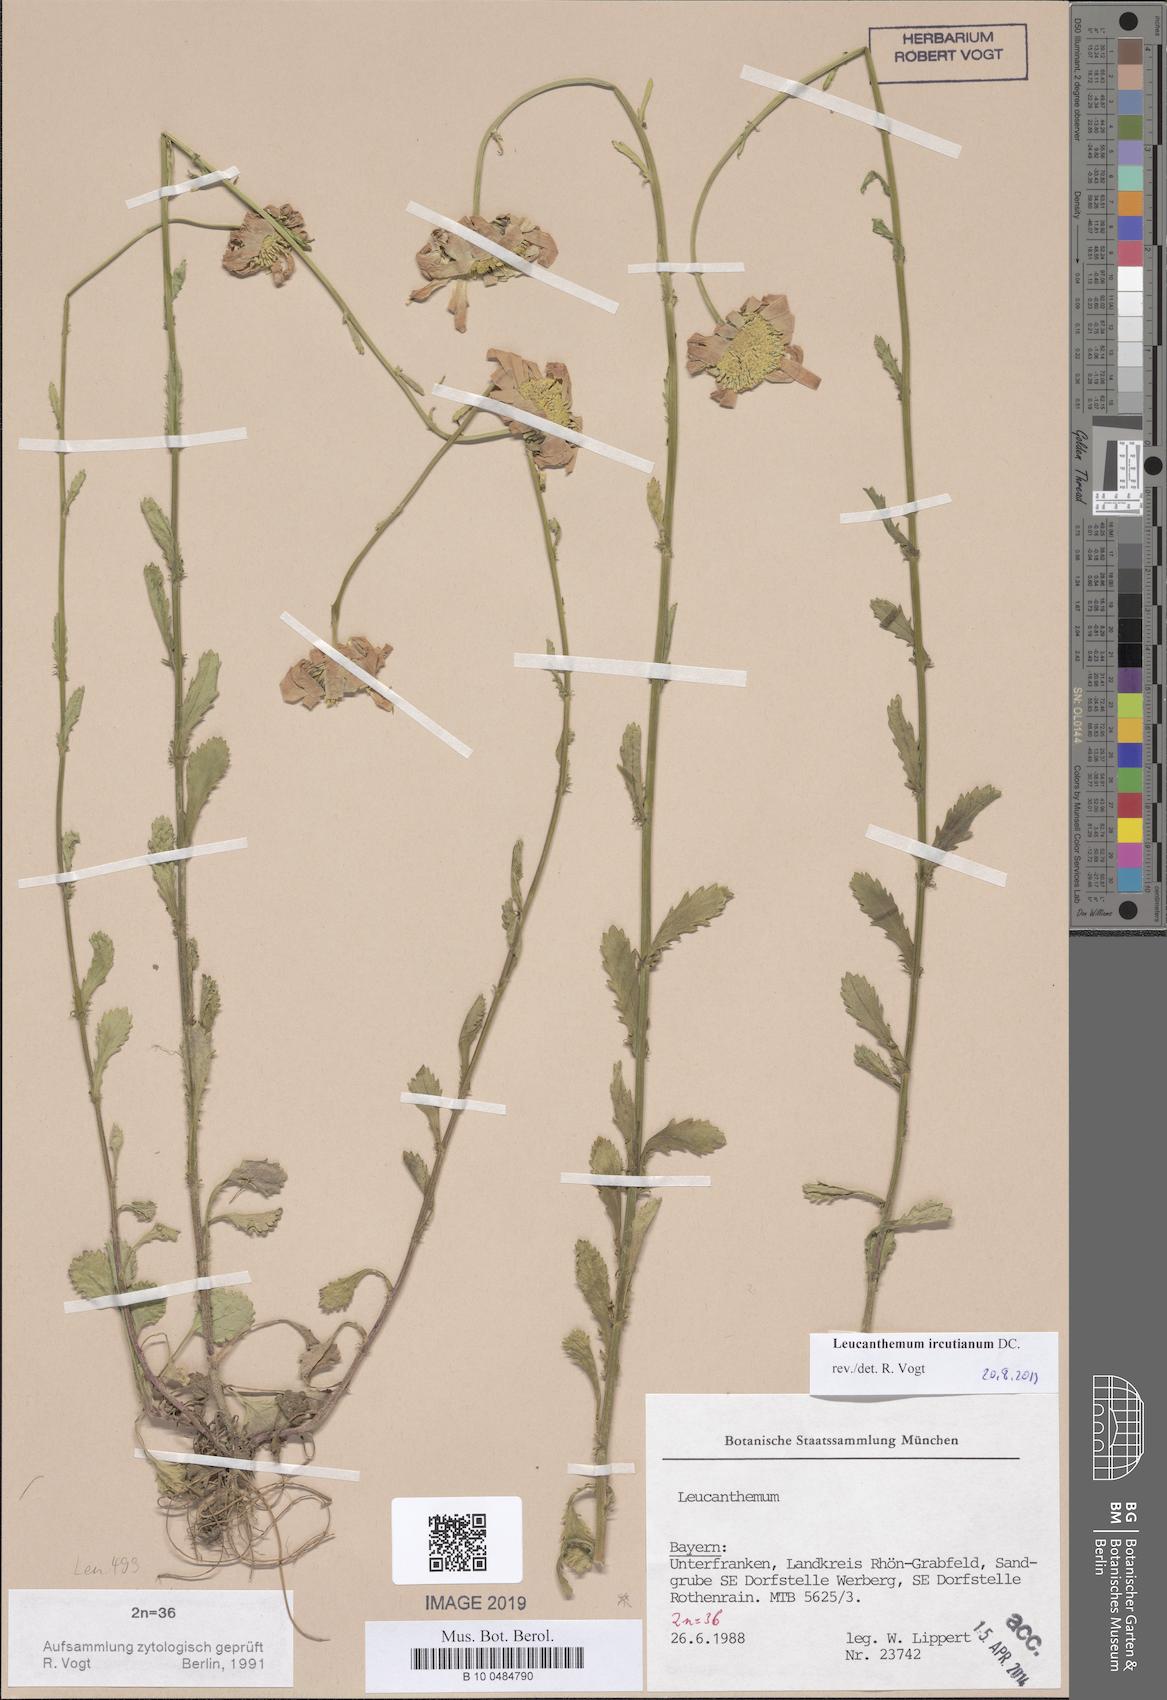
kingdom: Plantae
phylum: Tracheophyta
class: Magnoliopsida
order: Asterales
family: Asteraceae
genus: Leucanthemum
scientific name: Leucanthemum ircutianum
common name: Daisy
